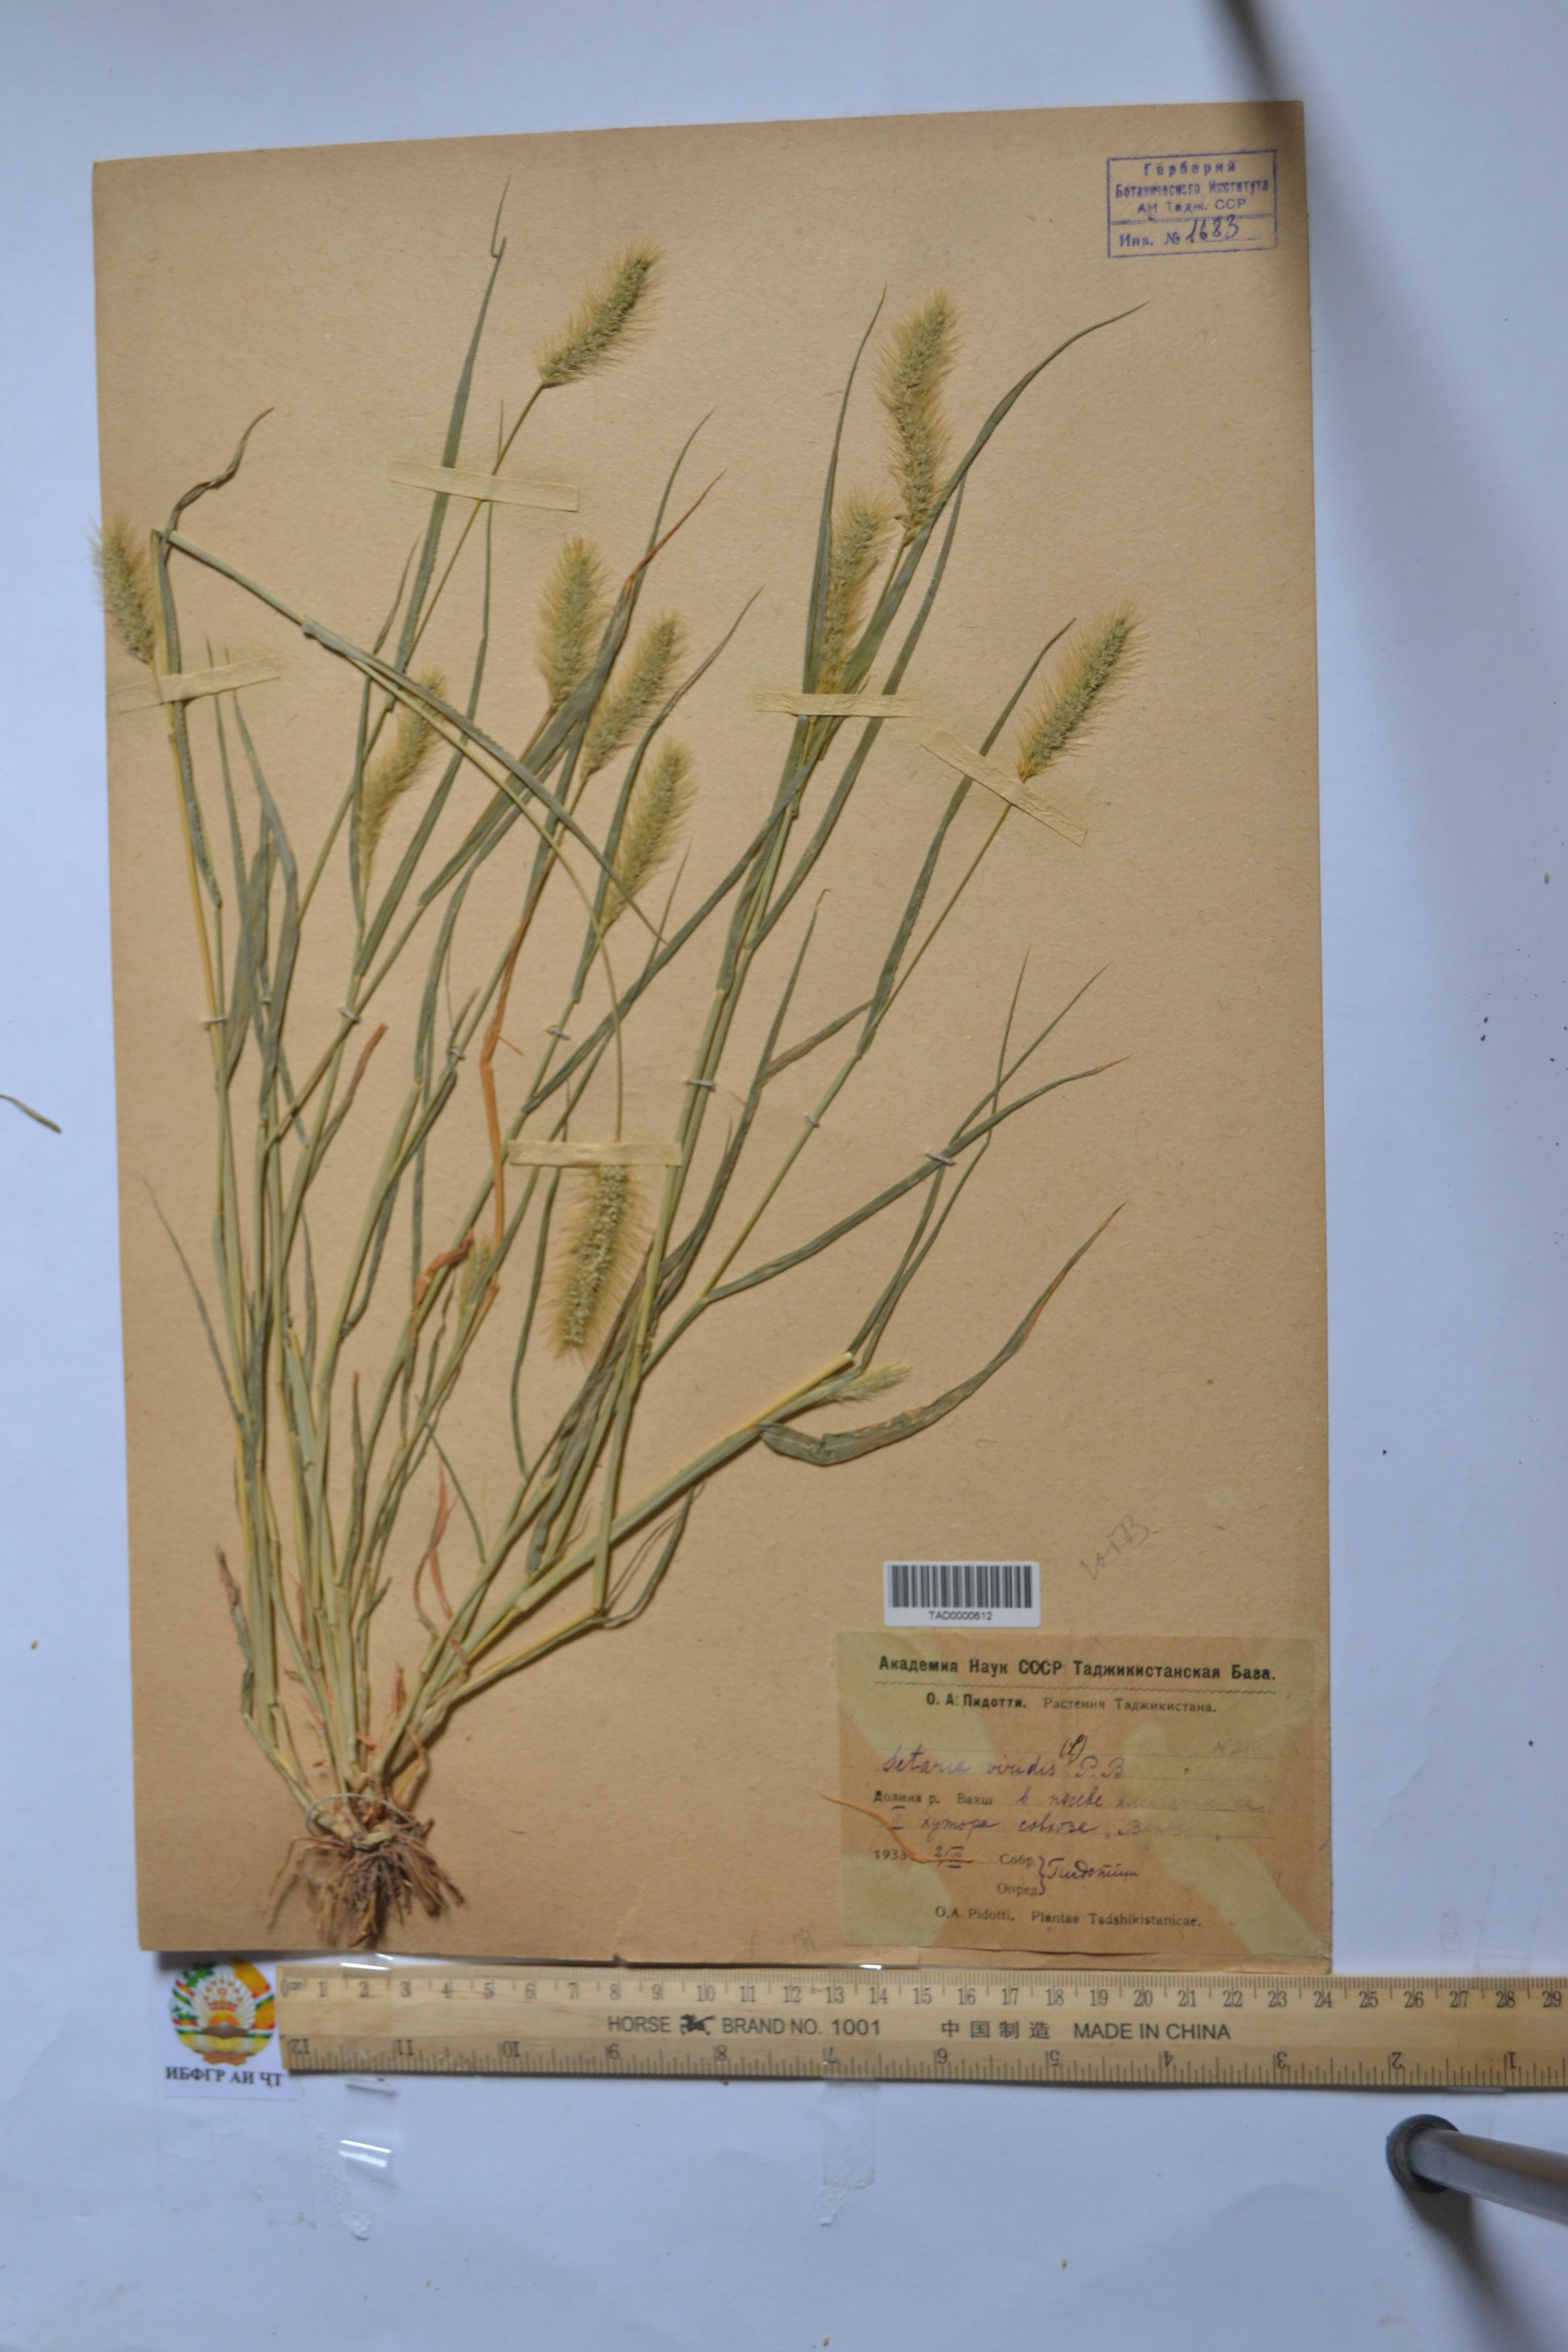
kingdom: Plantae
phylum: Tracheophyta
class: Liliopsida
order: Poales
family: Poaceae
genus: Setaria
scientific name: Setaria viridis
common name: Green bristlegrass
